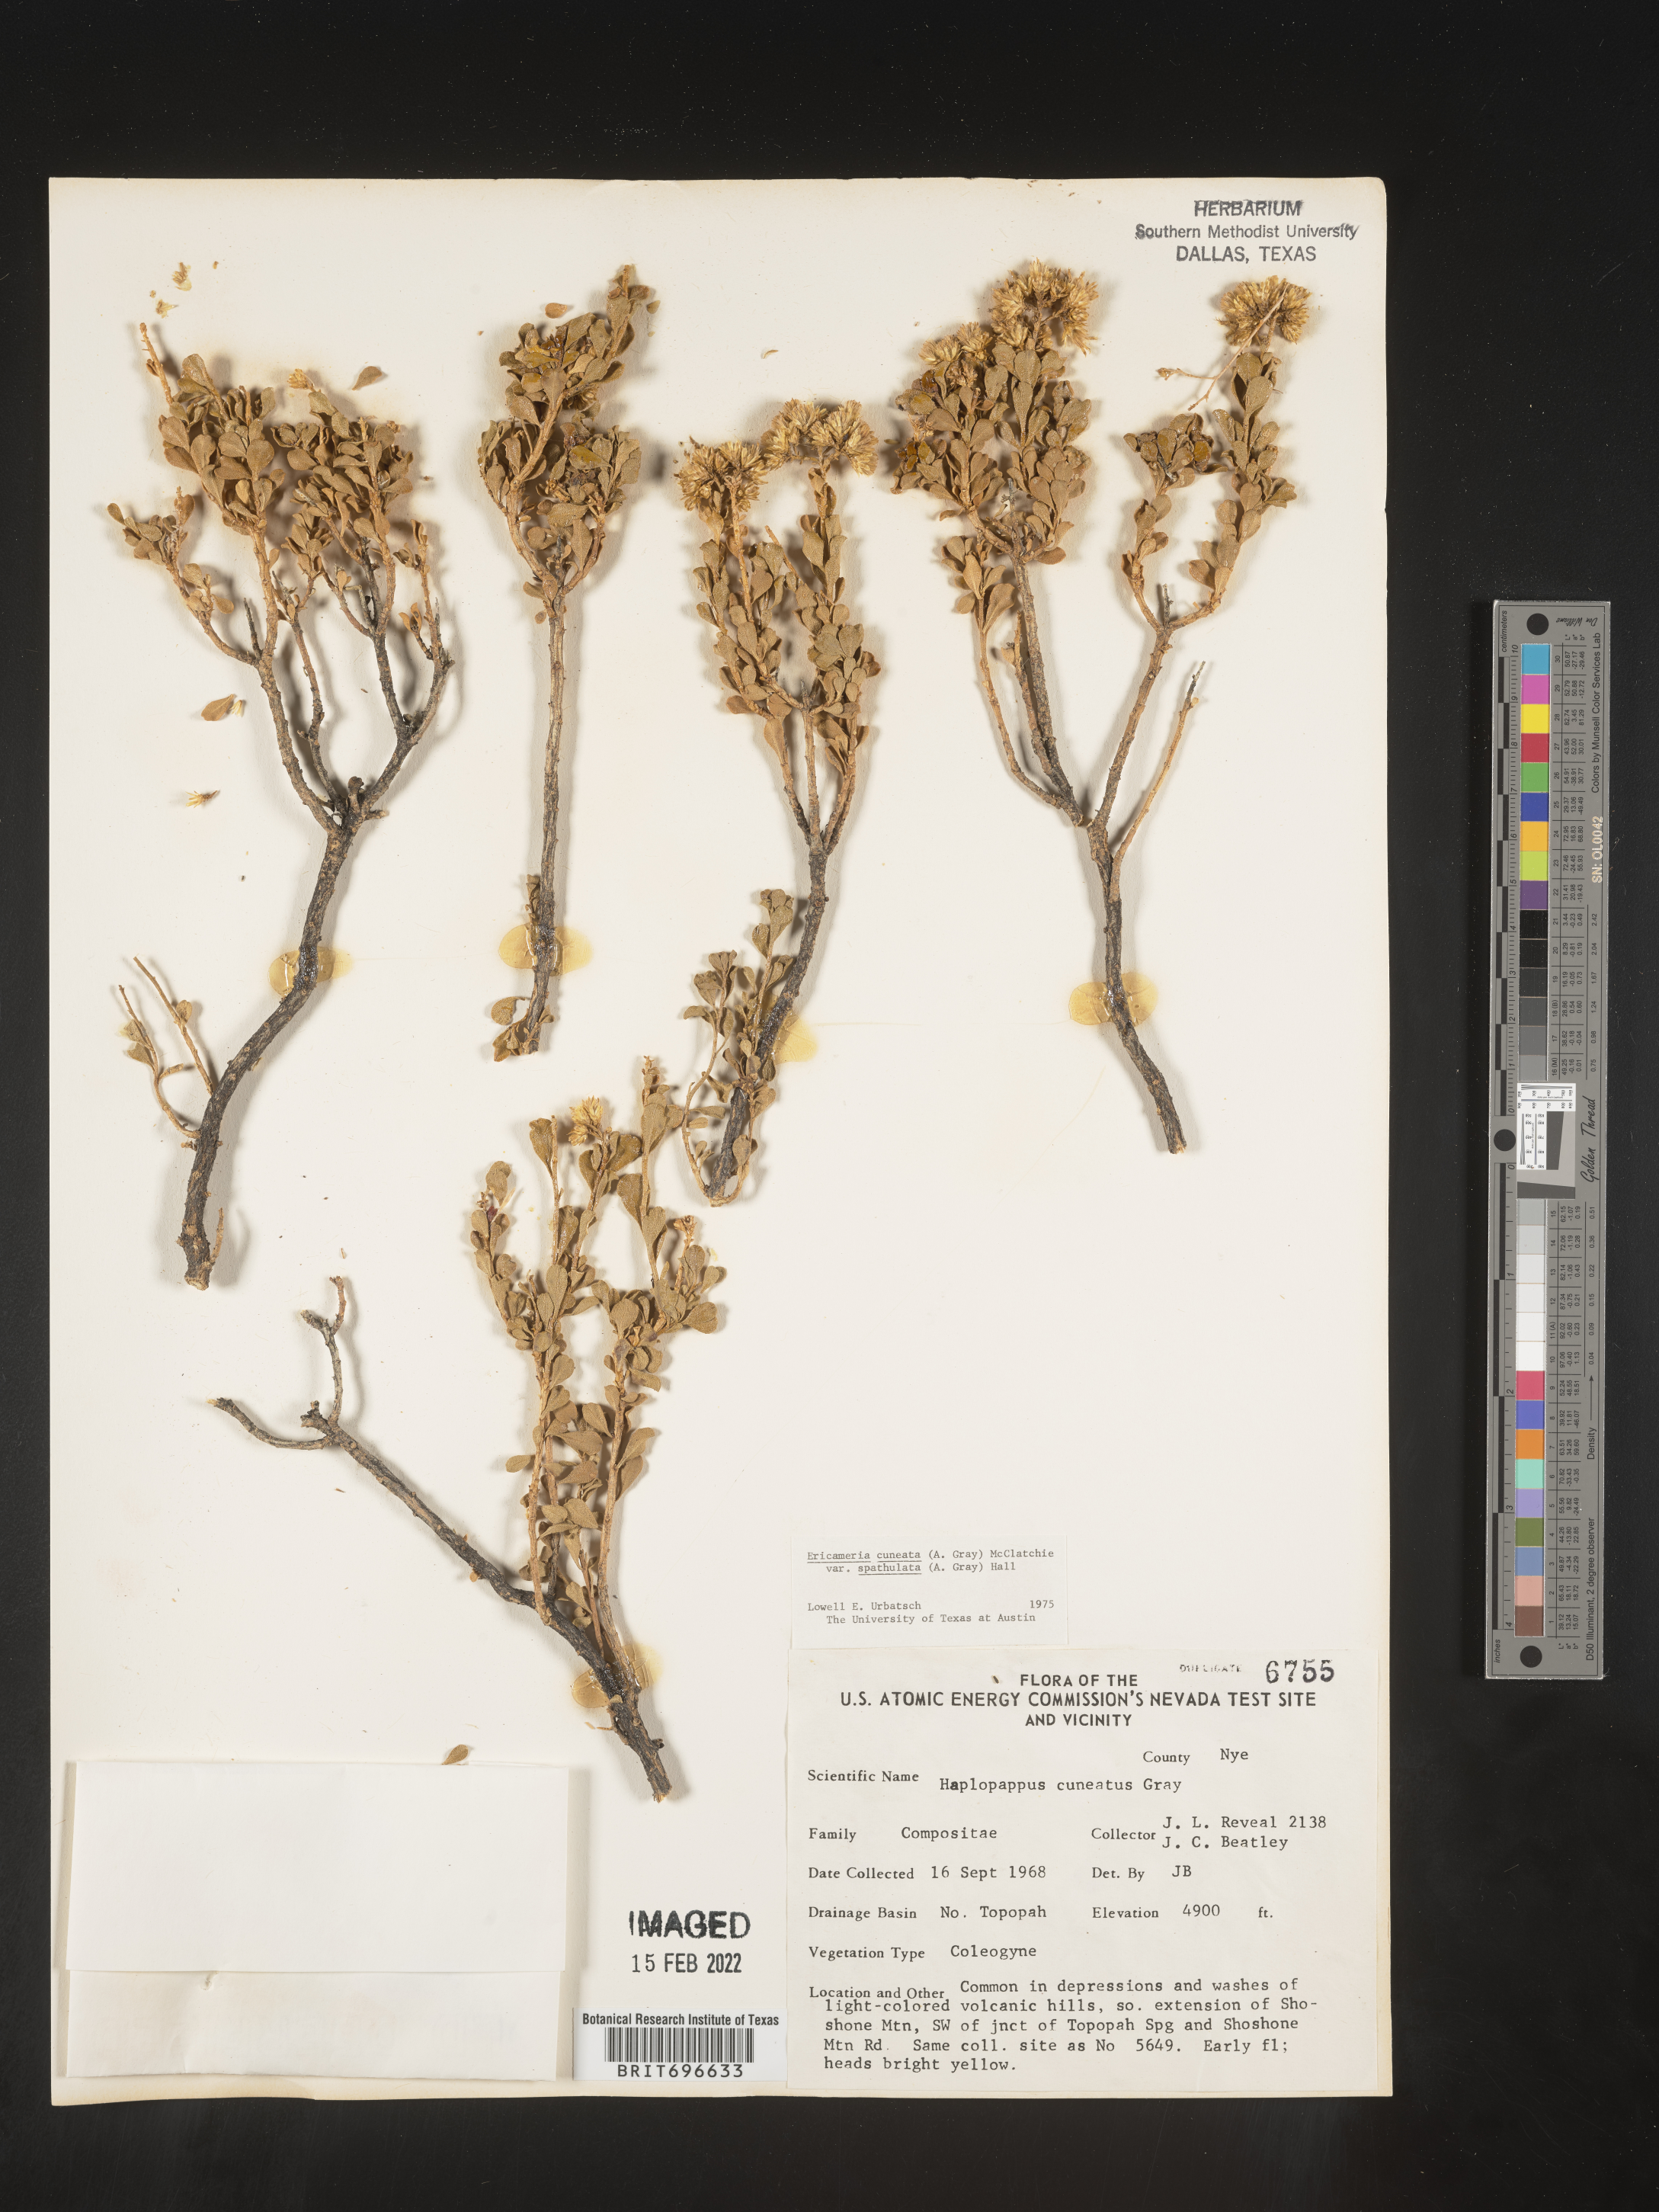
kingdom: Plantae
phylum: Tracheophyta
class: Magnoliopsida
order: Asterales
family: Asteraceae
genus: Ericameria
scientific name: Ericameria cuneata
